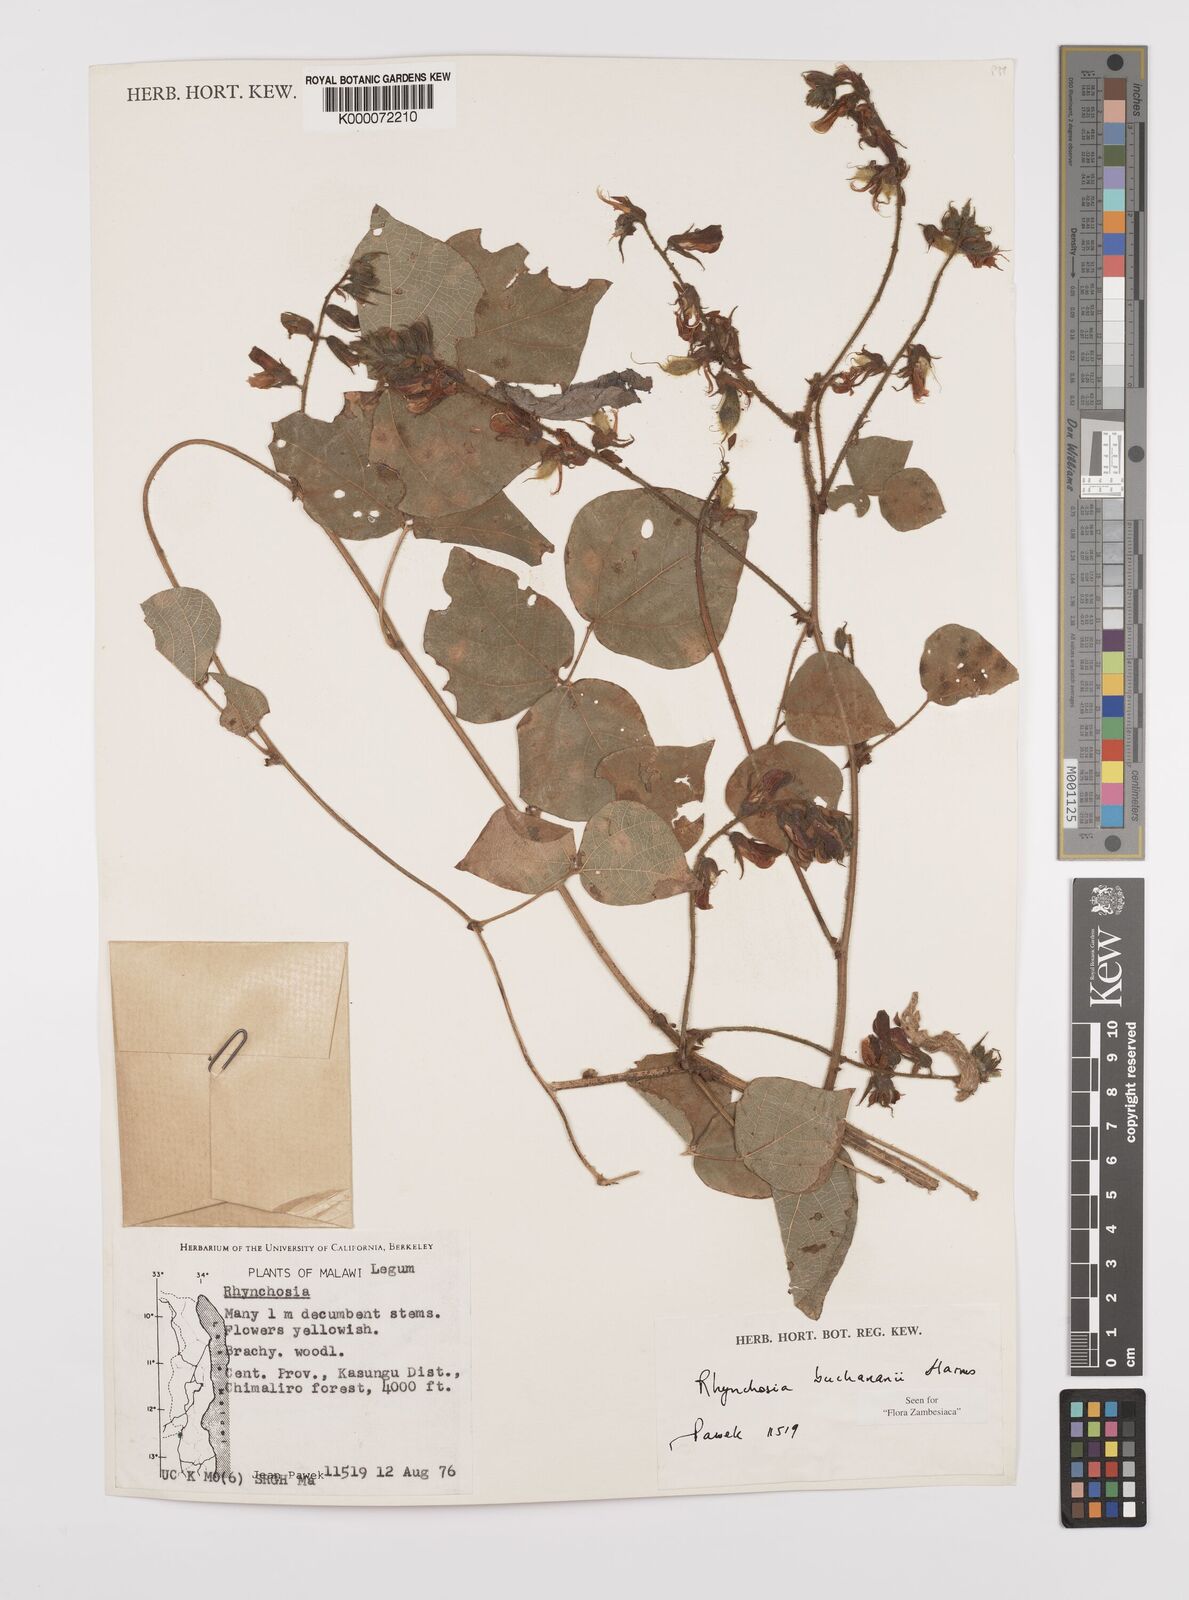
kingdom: Plantae
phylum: Tracheophyta
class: Magnoliopsida
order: Fabales
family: Fabaceae
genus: Rhynchosia
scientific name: Rhynchosia buchananii
